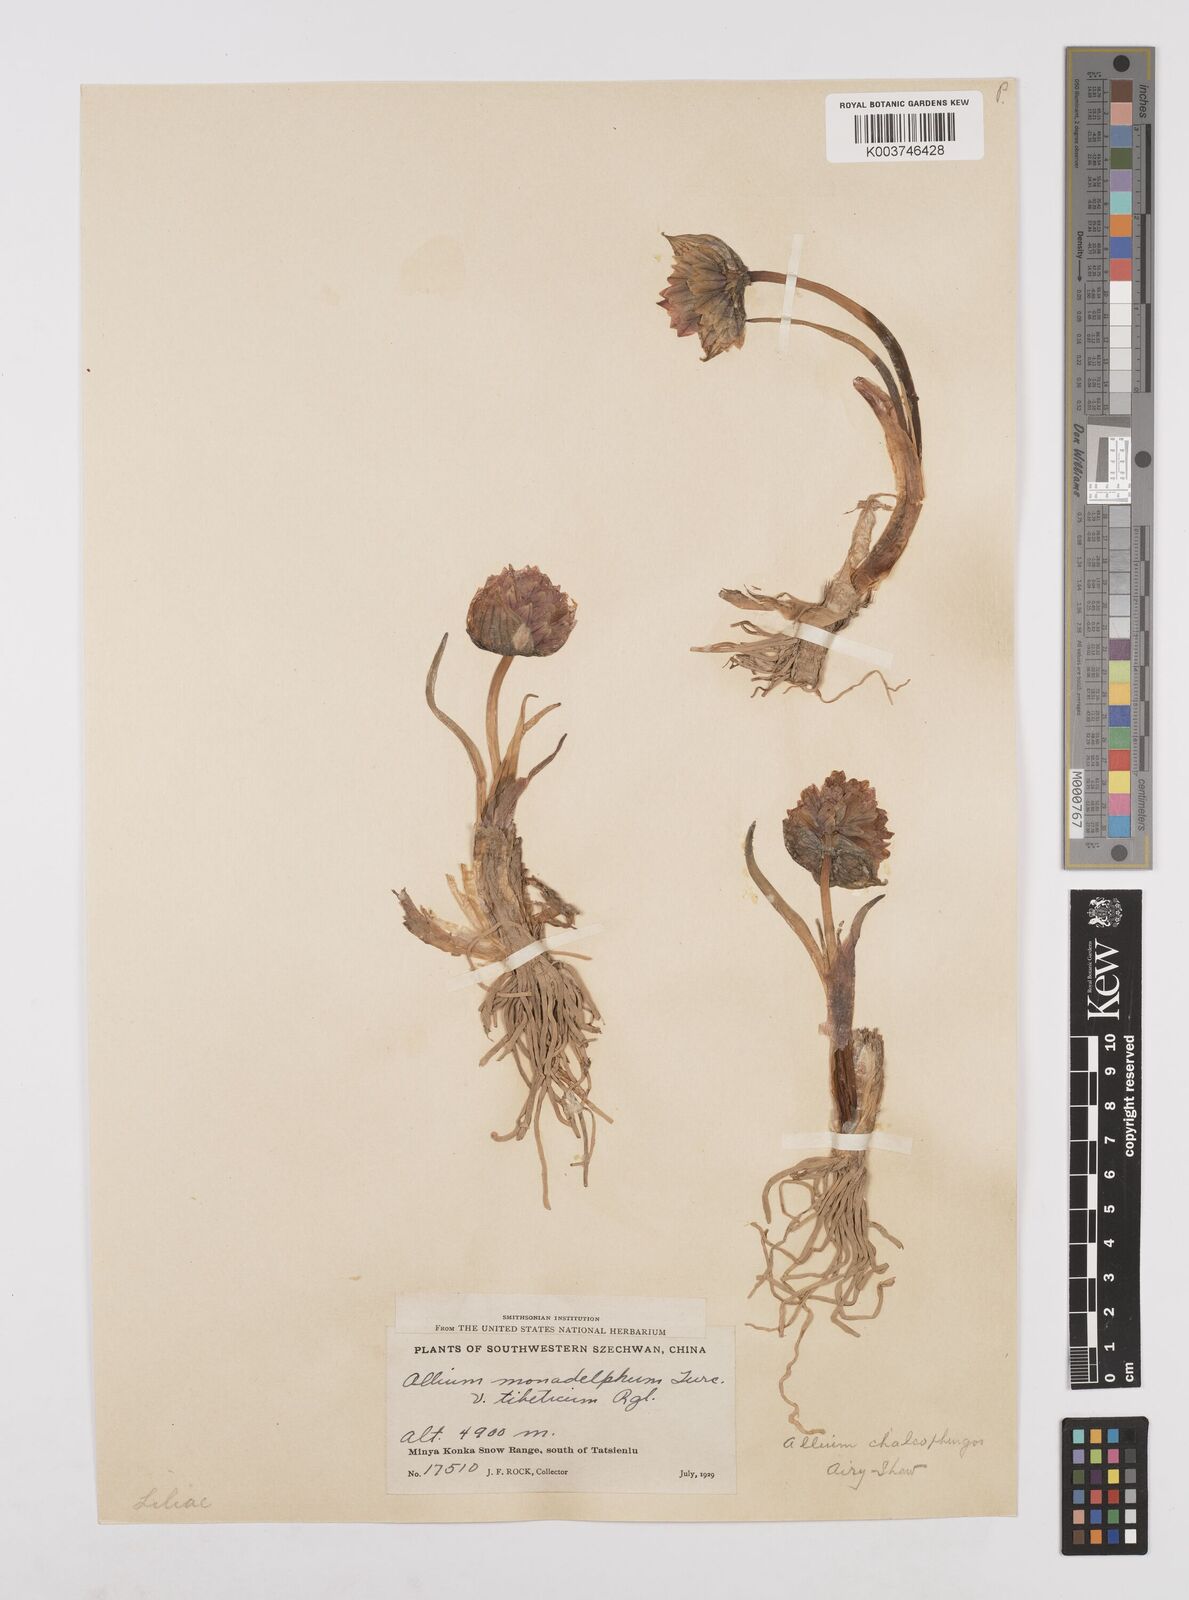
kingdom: Plantae
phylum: Tracheophyta
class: Liliopsida
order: Asparagales
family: Amaryllidaceae
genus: Allium
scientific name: Allium atrosanguineum
